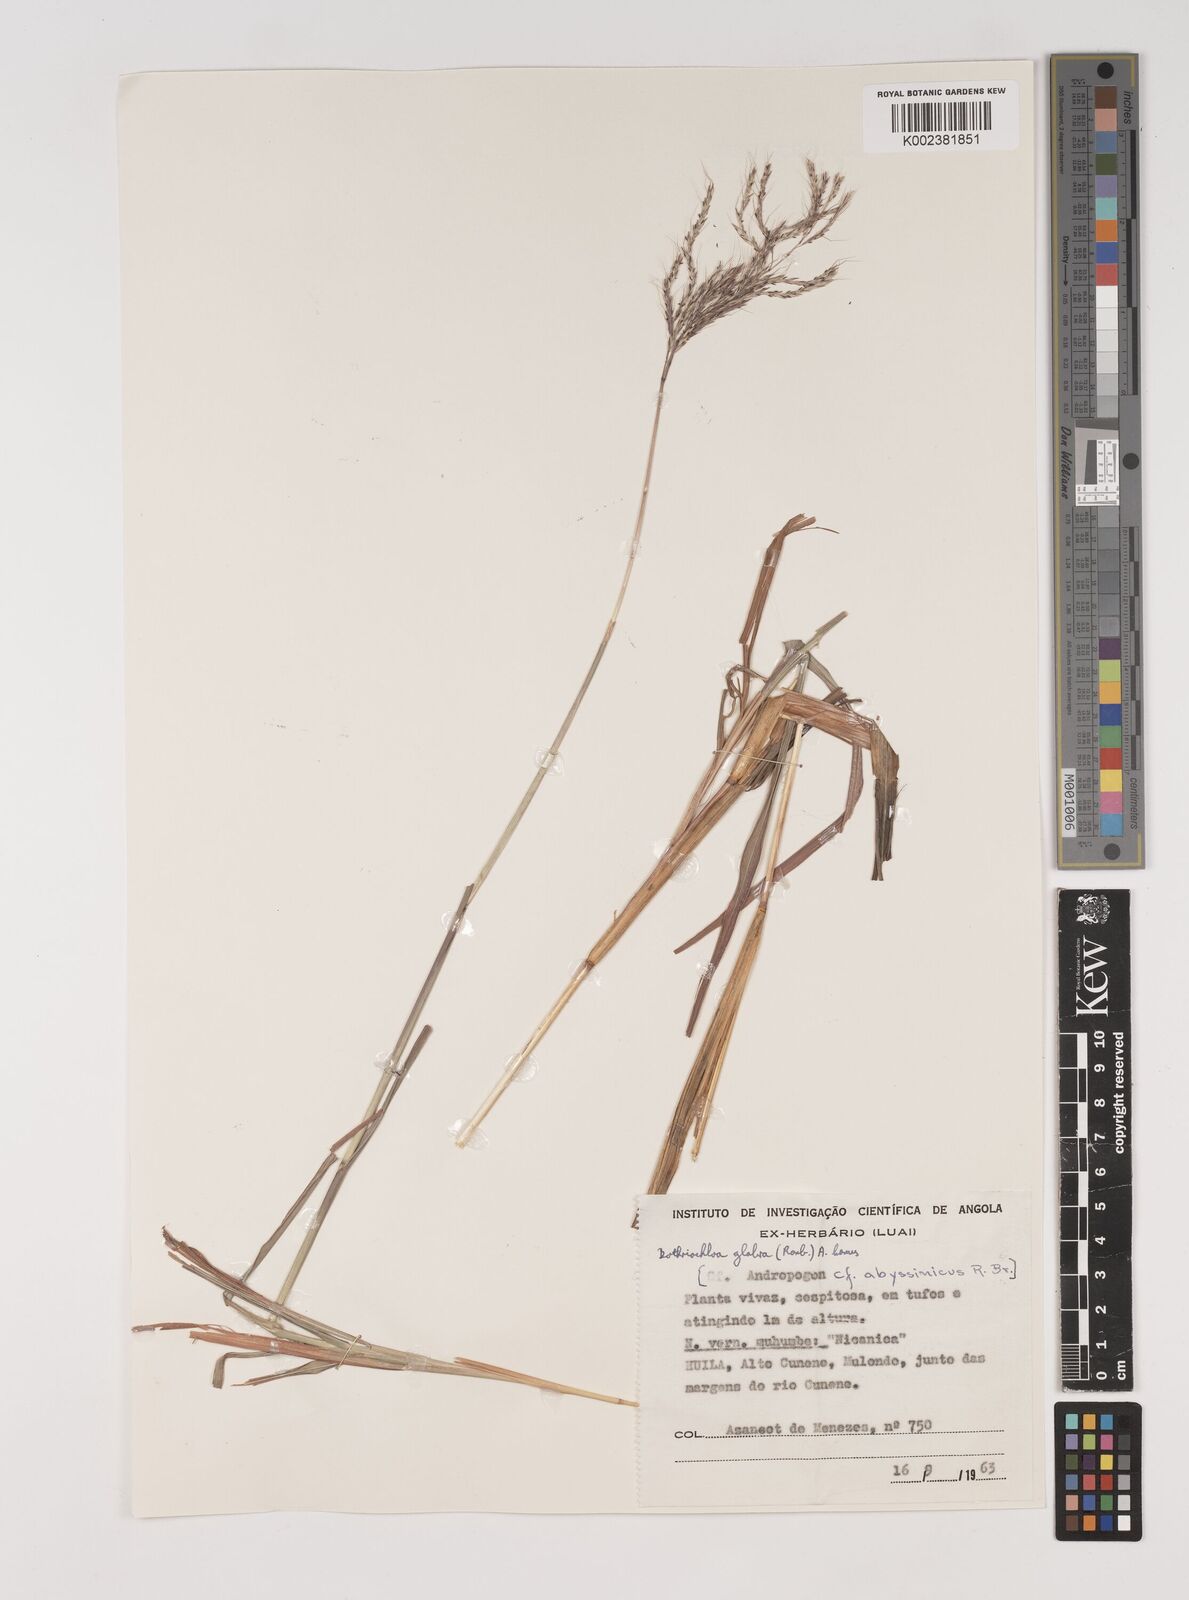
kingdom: Plantae
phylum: Tracheophyta
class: Liliopsida
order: Poales
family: Poaceae
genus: Bothriochloa
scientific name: Bothriochloa bladhii
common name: Caucasian bluestem
